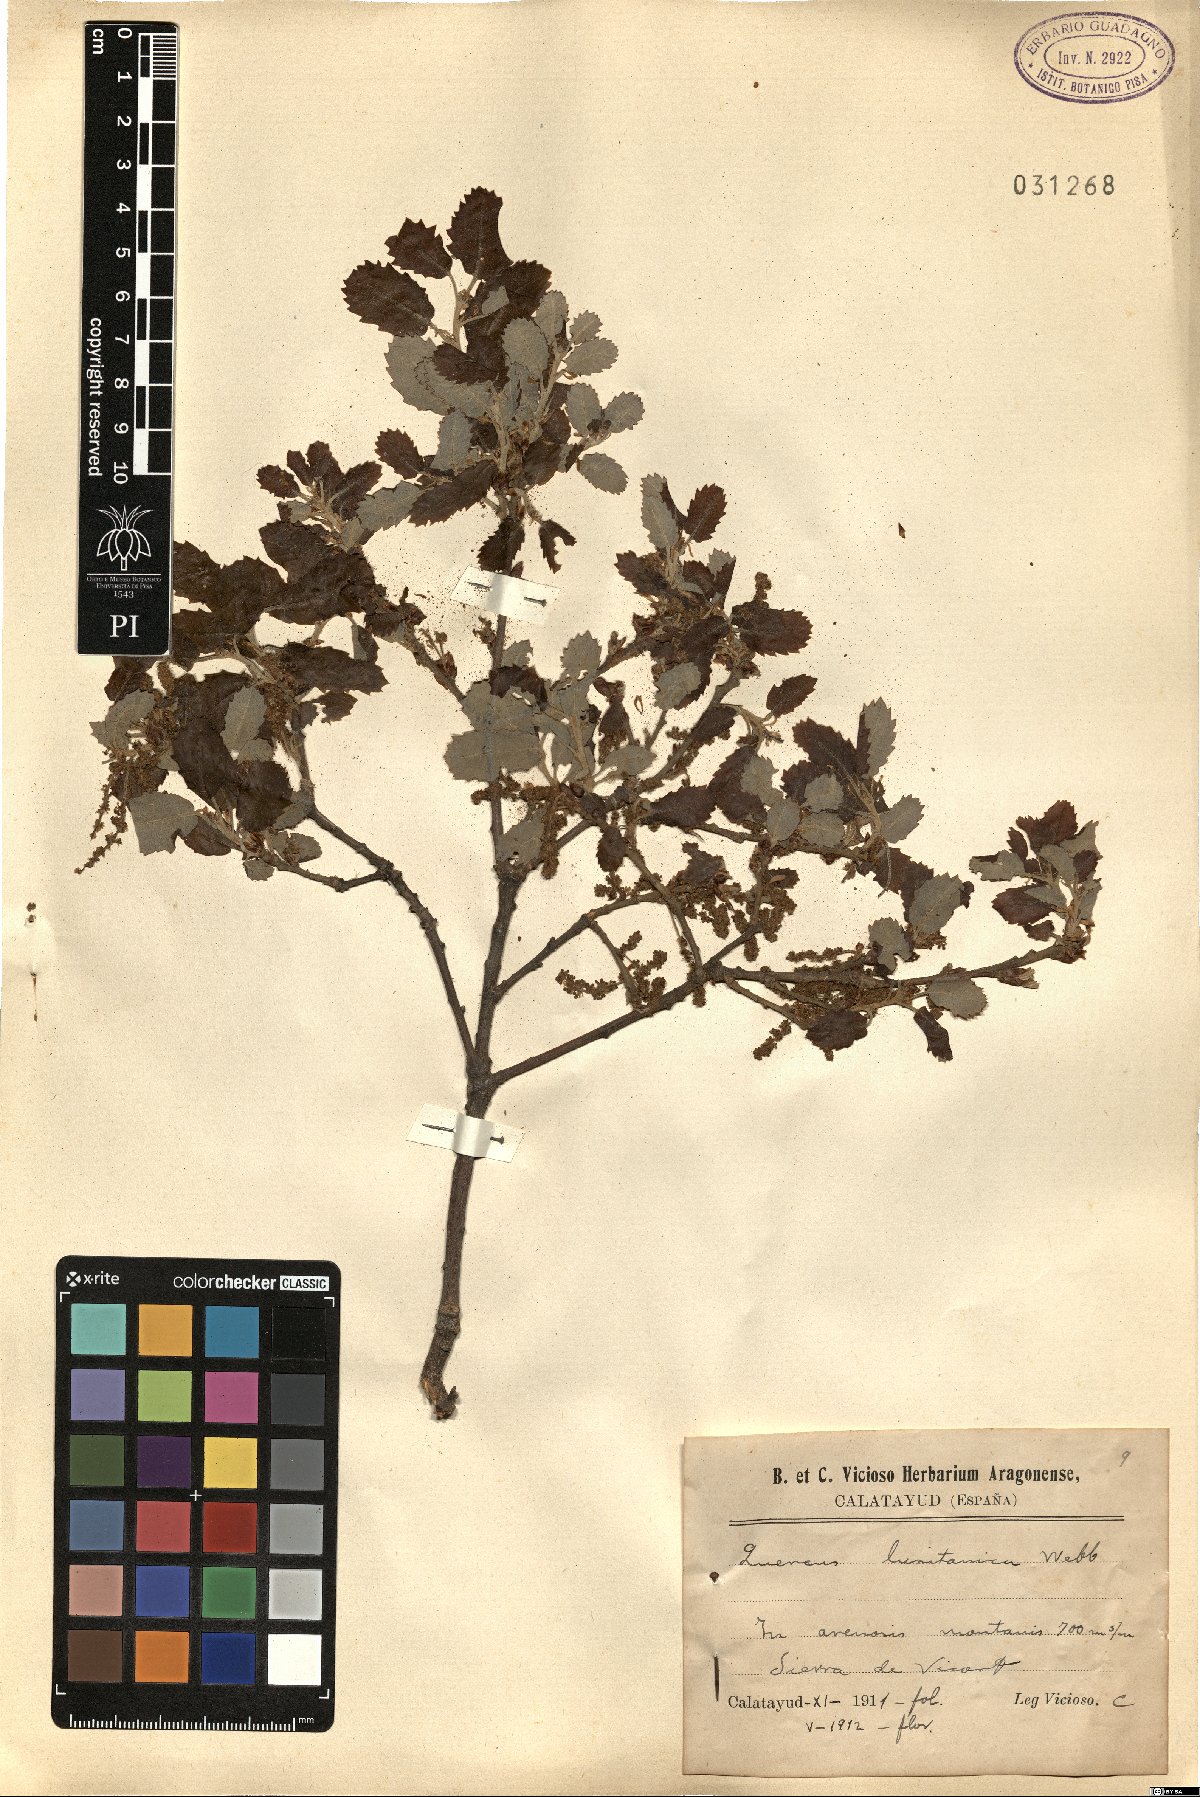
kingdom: Plantae
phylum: Tracheophyta
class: Magnoliopsida
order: Fagales
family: Fagaceae
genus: Quercus
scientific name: Quercus lusitanica
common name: Scrub gall oak
